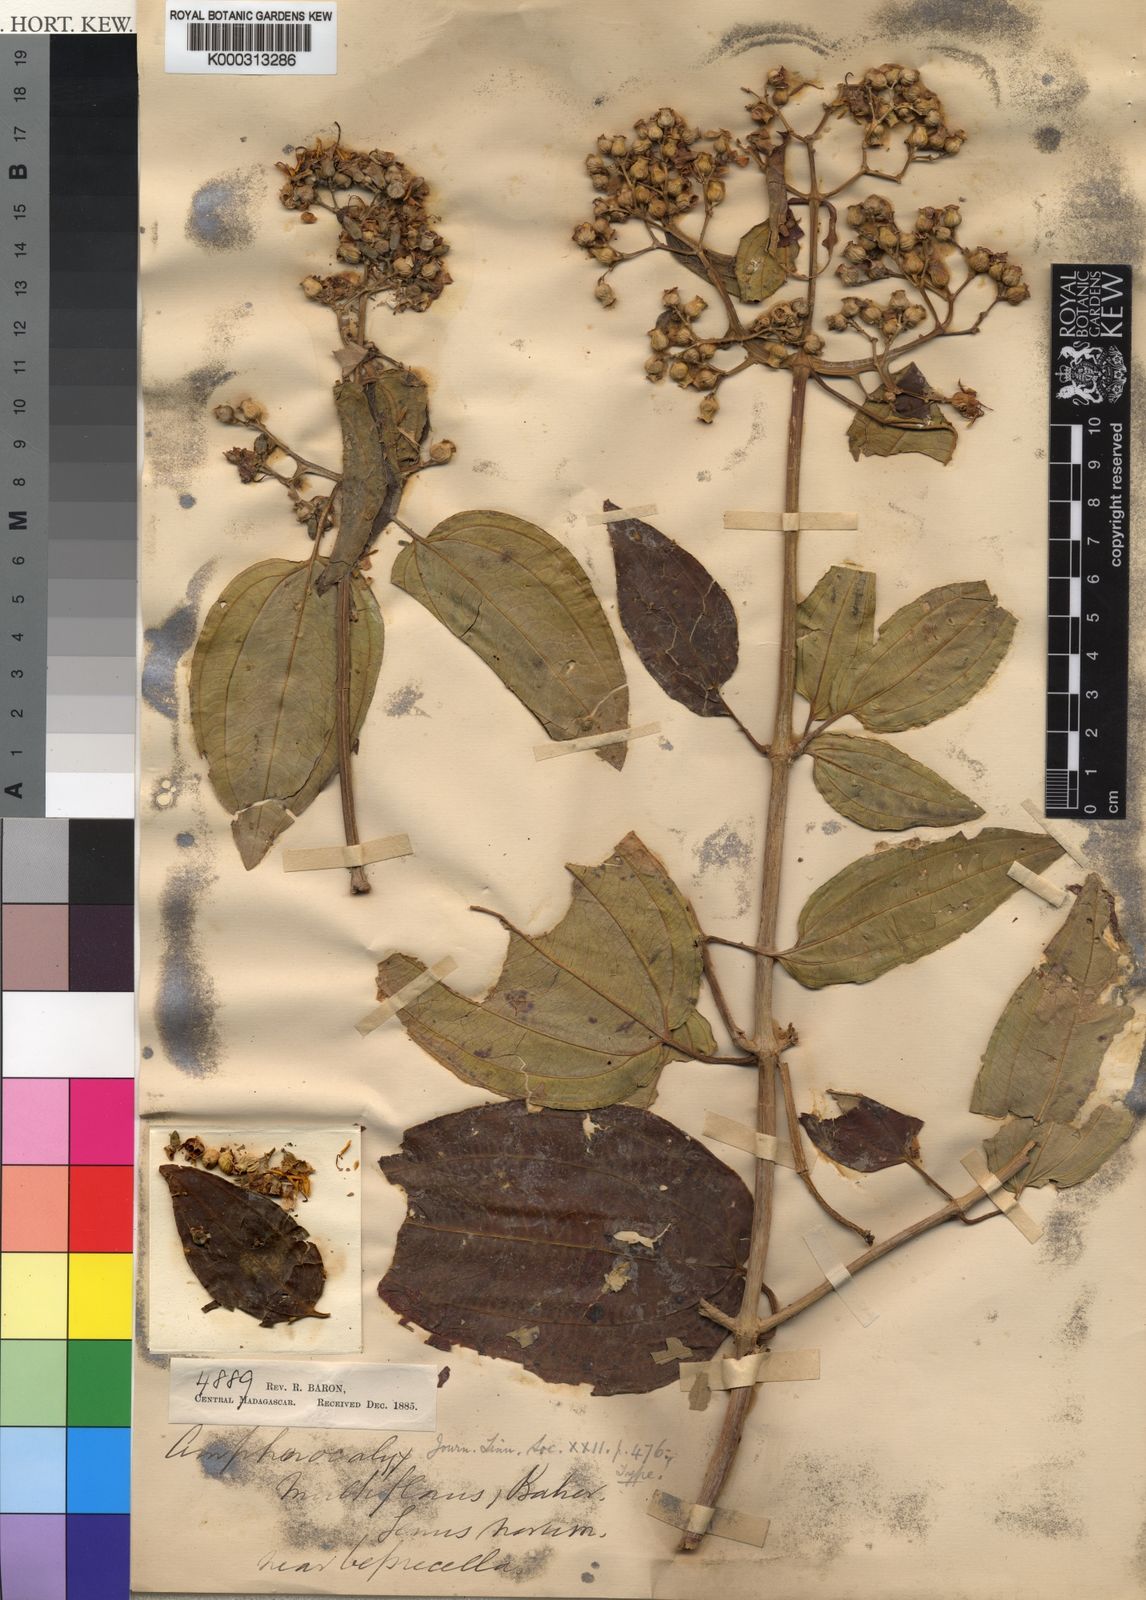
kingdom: Plantae
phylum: Tracheophyta
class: Magnoliopsida
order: Myrtales
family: Melastomataceae
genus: Amphorocalyx
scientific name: Amphorocalyx
